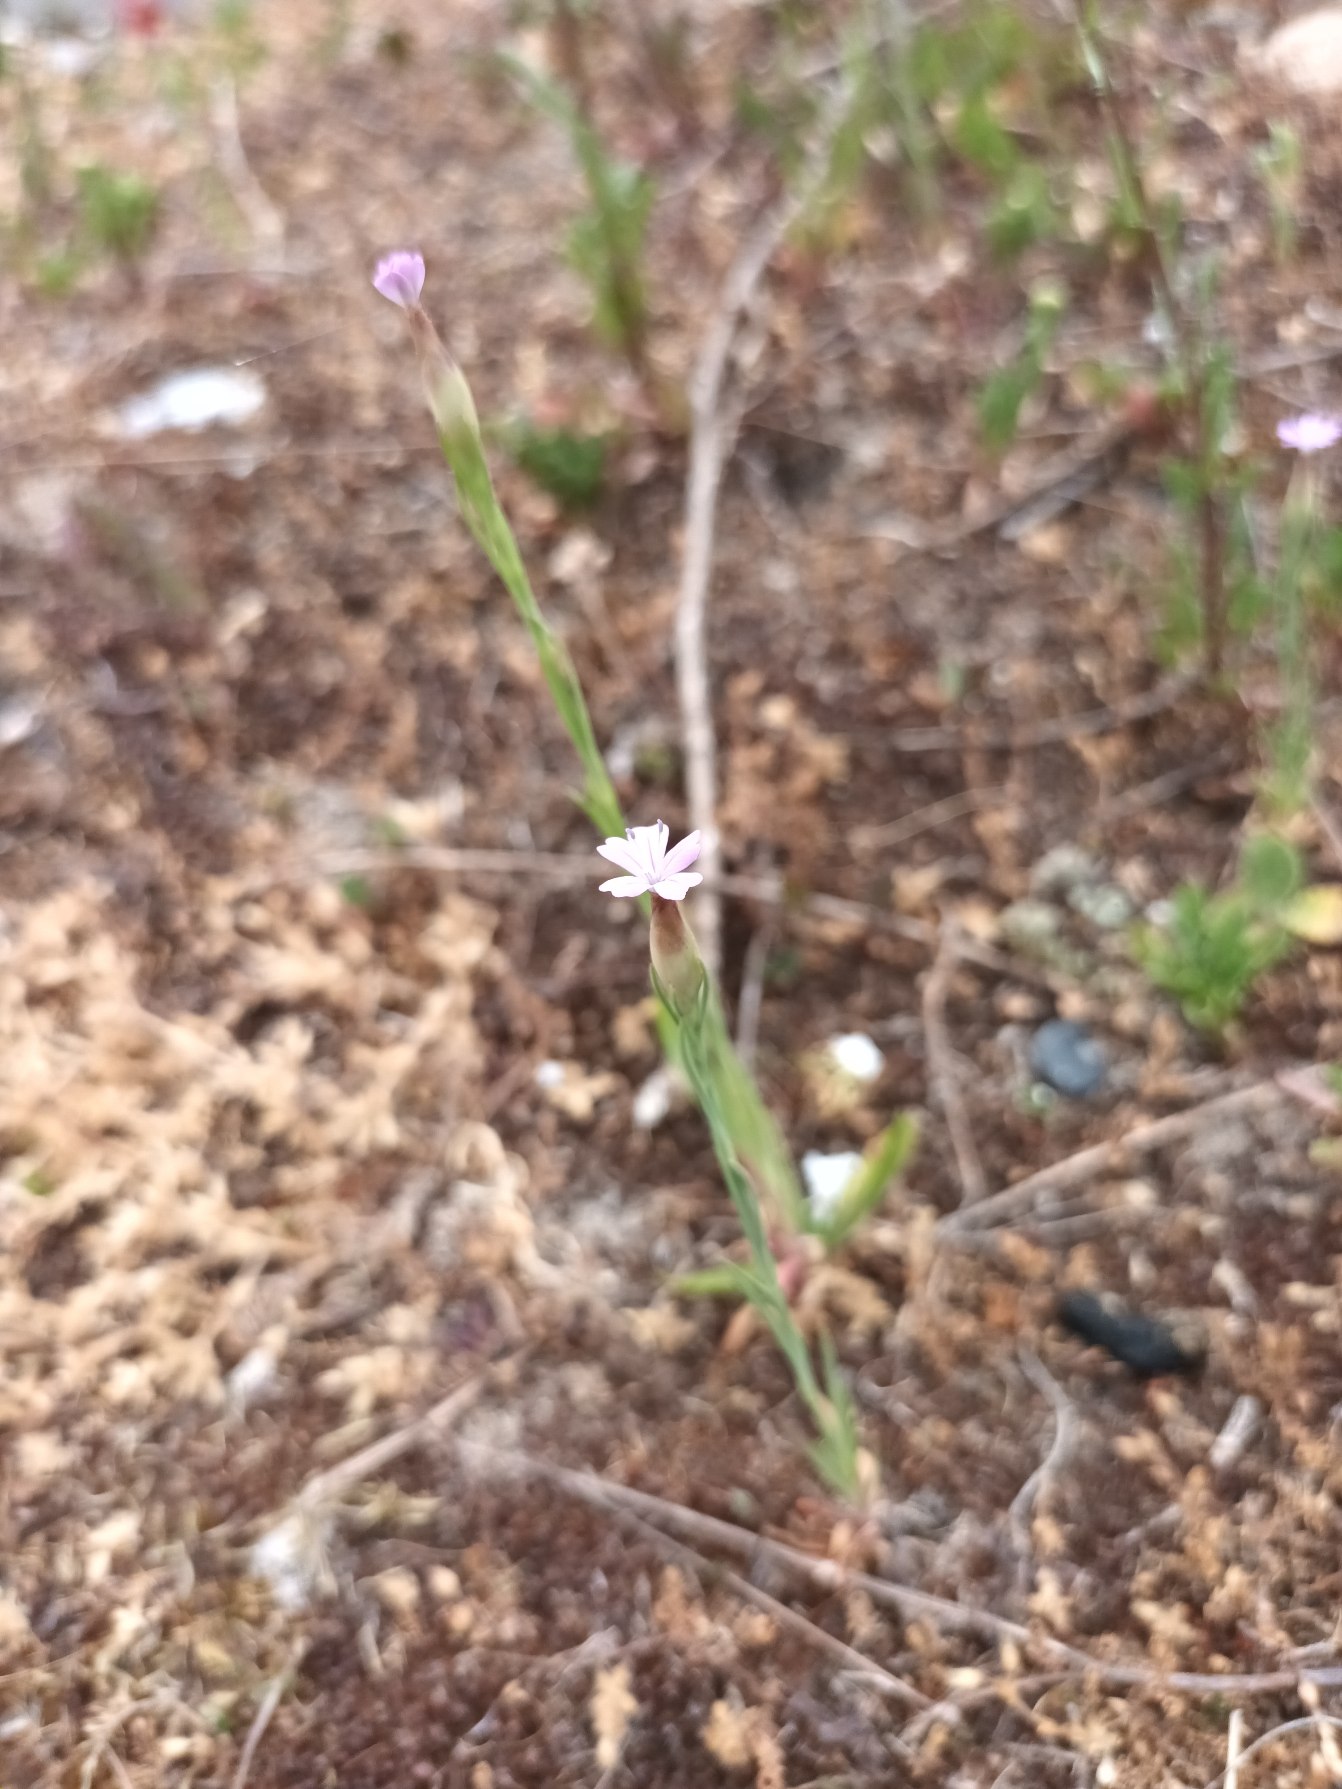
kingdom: Plantae
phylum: Tracheophyta
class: Magnoliopsida
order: Caryophyllales
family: Caryophyllaceae
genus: Petrorhagia
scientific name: Petrorhagia prolifera
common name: Knopnellike
